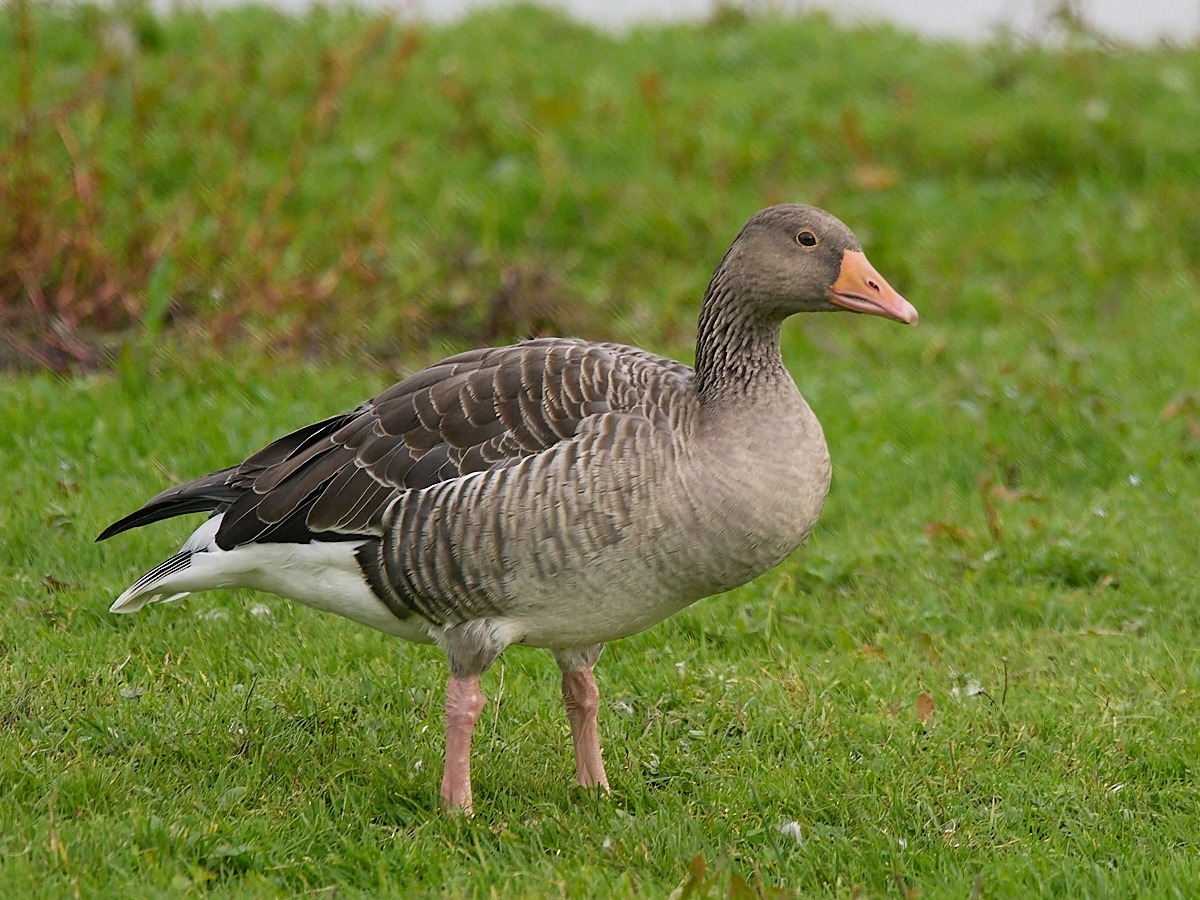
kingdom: Animalia
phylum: Chordata
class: Aves
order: Anseriformes
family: Anatidae
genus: Anser
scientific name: Anser anser
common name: Grågås
